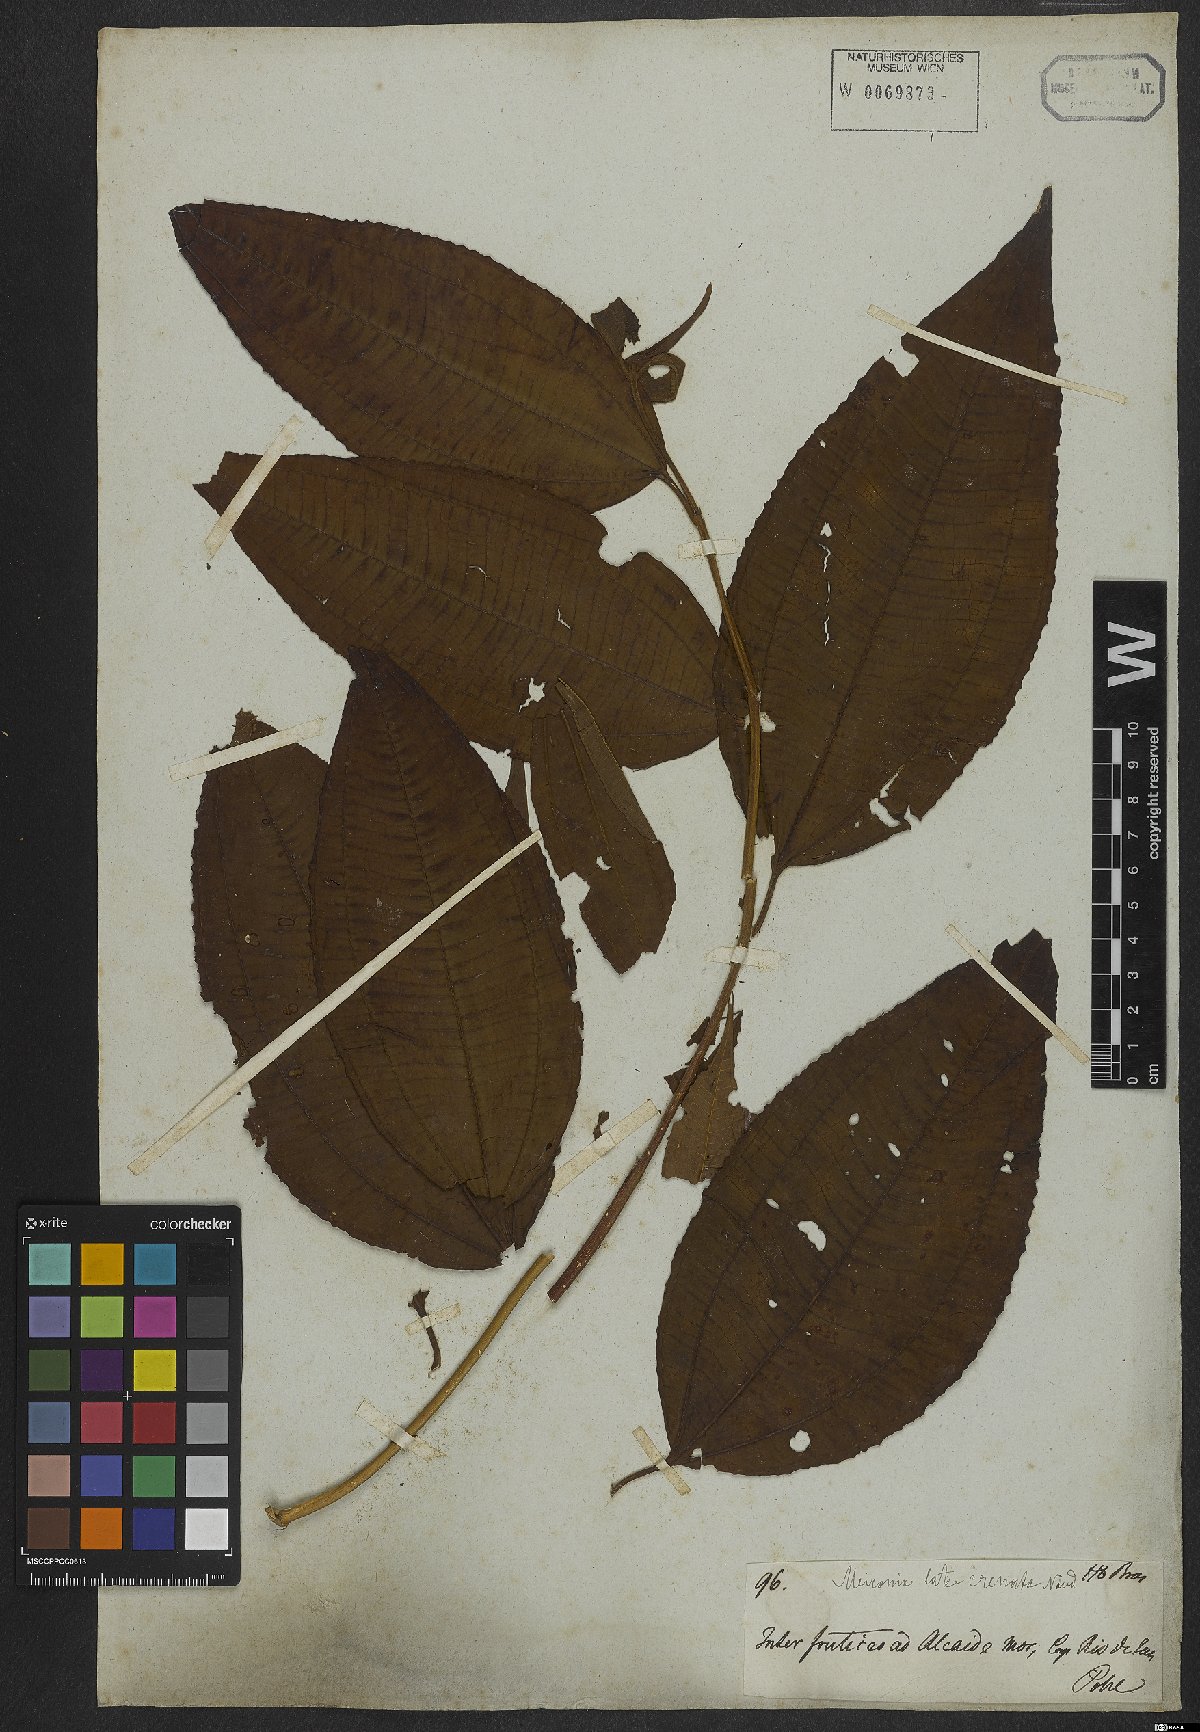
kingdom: Plantae
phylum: Tracheophyta
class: Magnoliopsida
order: Myrtales
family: Melastomataceae
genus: Miconia
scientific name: Miconia latecrenata
